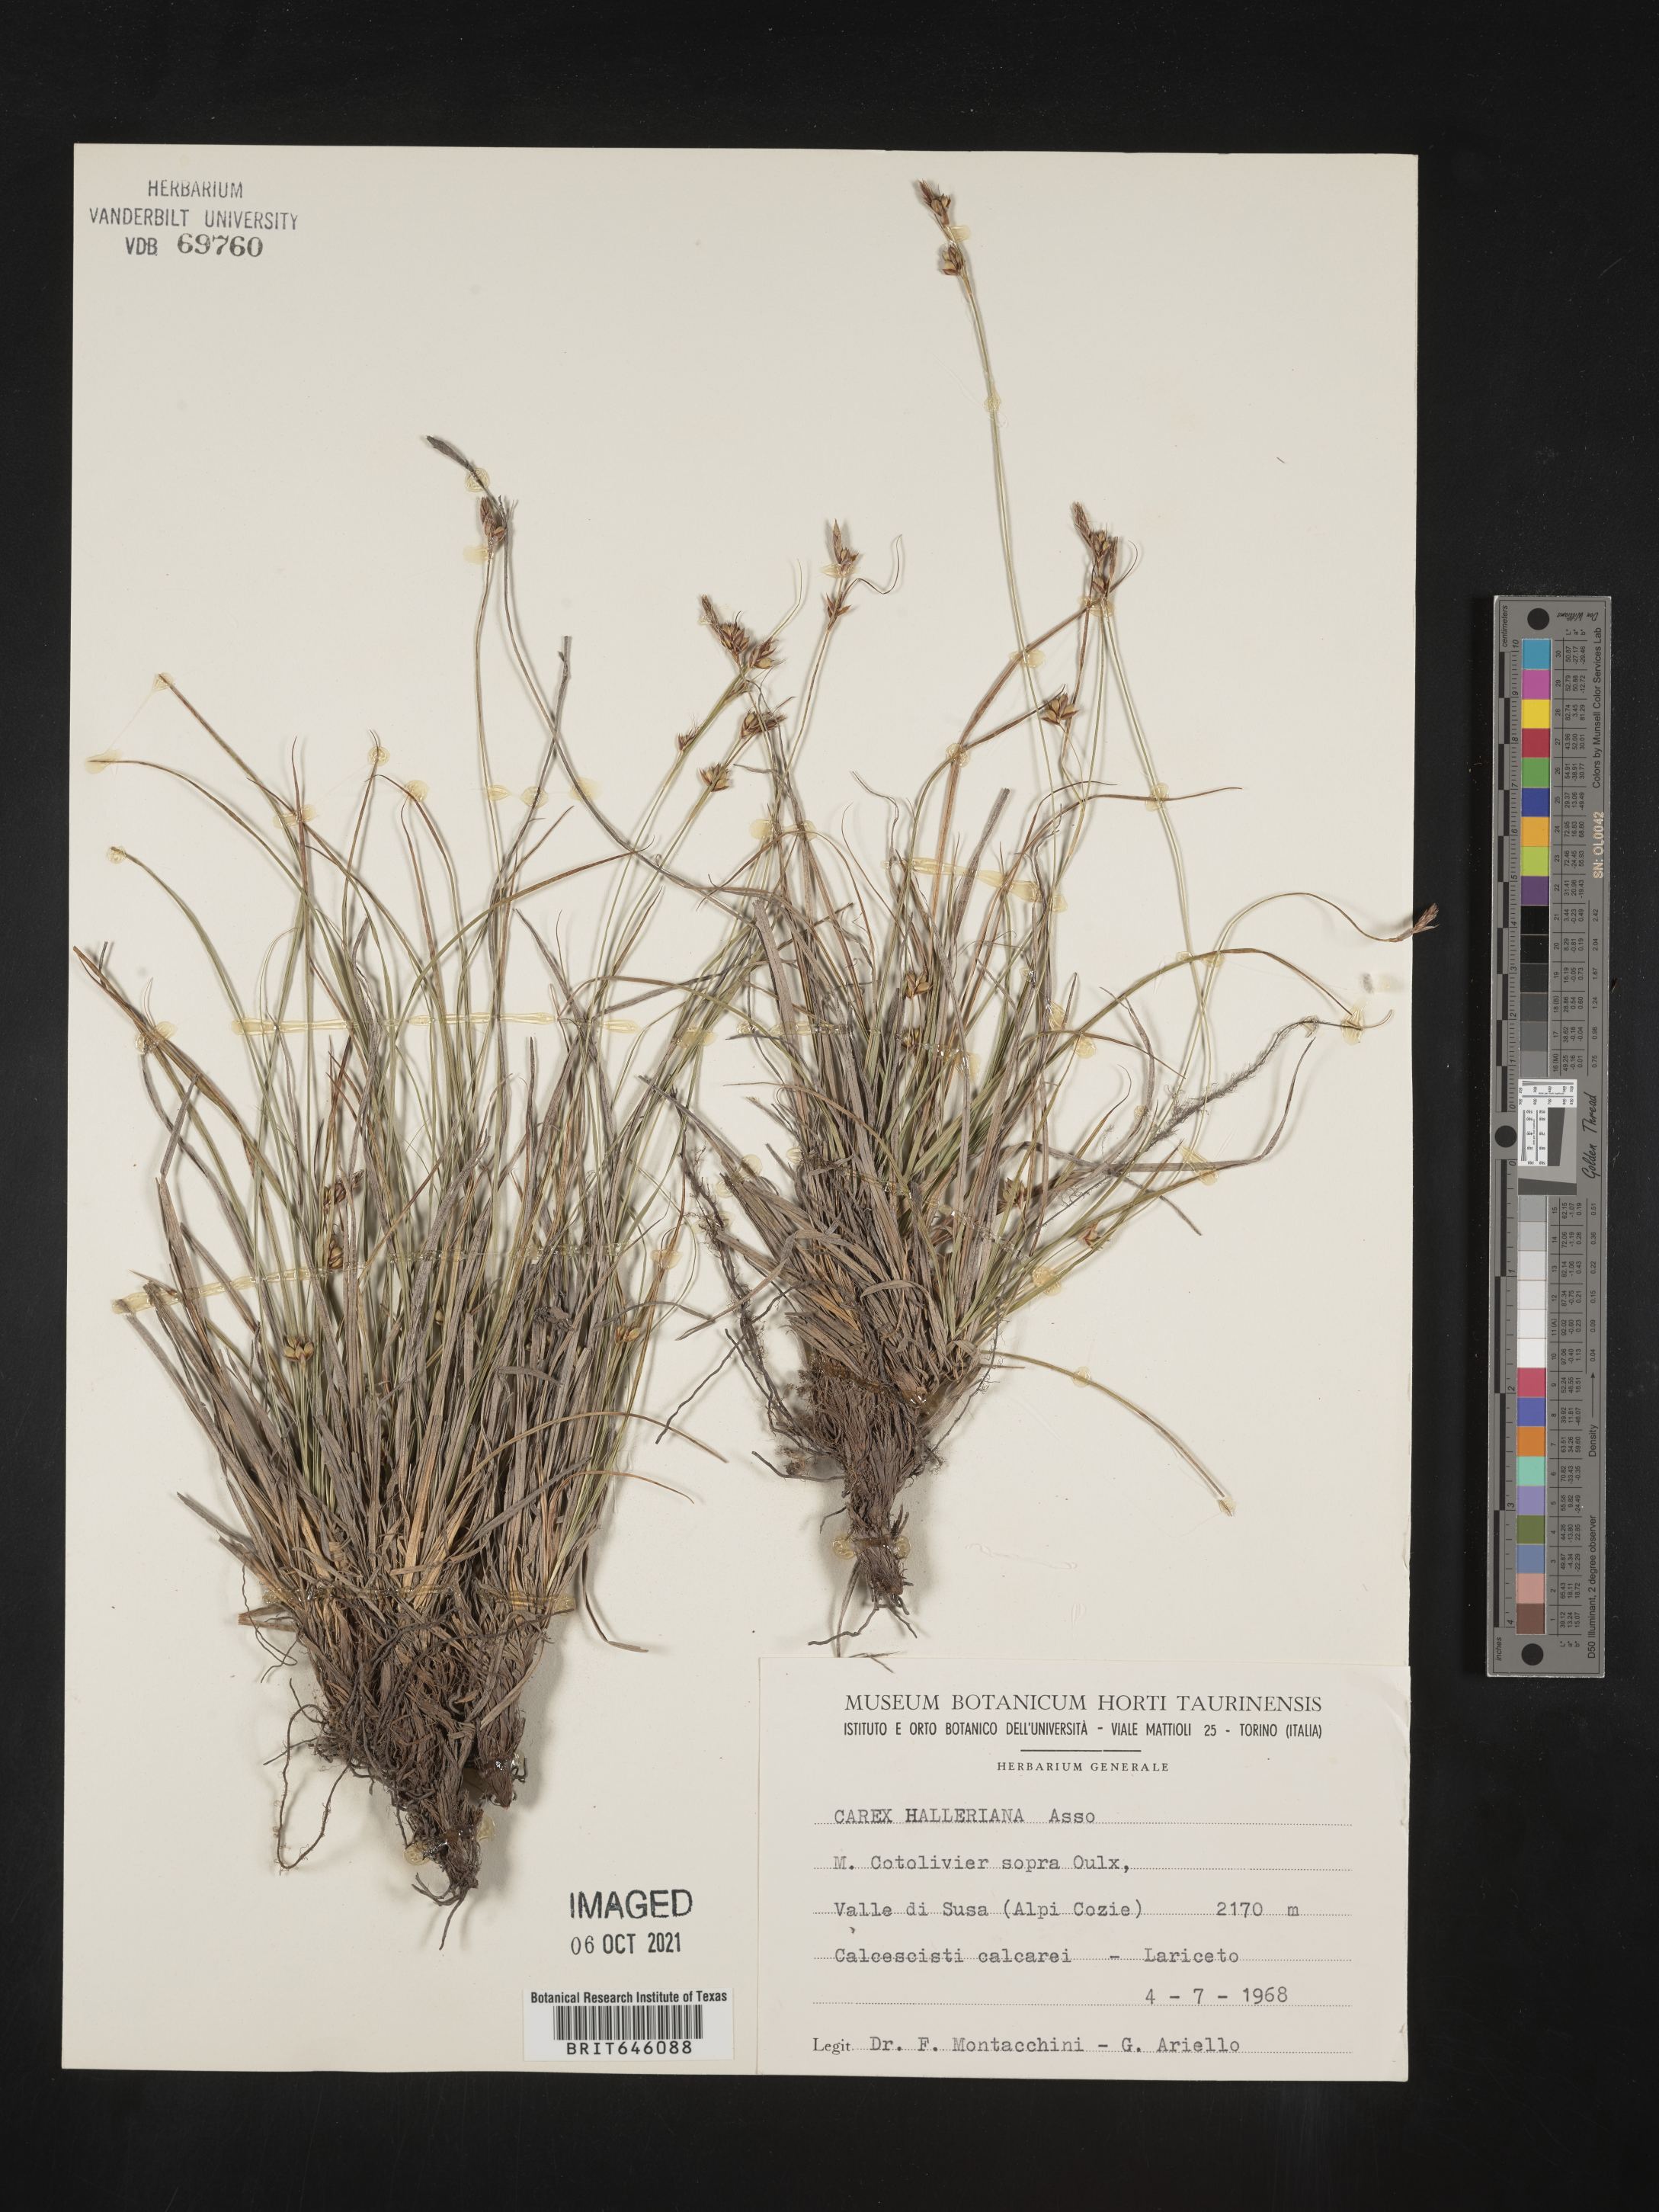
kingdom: Plantae
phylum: Tracheophyta
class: Liliopsida
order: Poales
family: Cyperaceae
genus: Carex
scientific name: Carex halleriana
